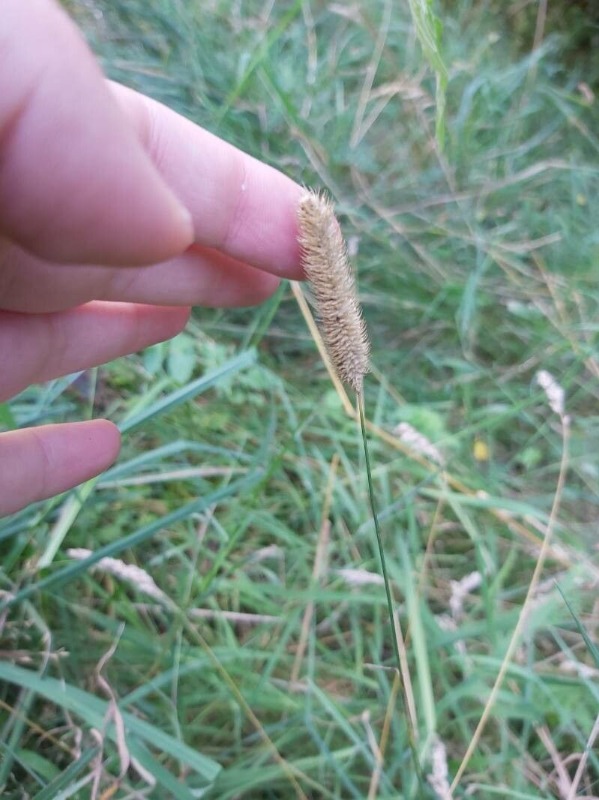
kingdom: Plantae
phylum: Tracheophyta
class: Liliopsida
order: Poales
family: Poaceae
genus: Phleum
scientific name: Phleum pratense
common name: Eng-rottehale
